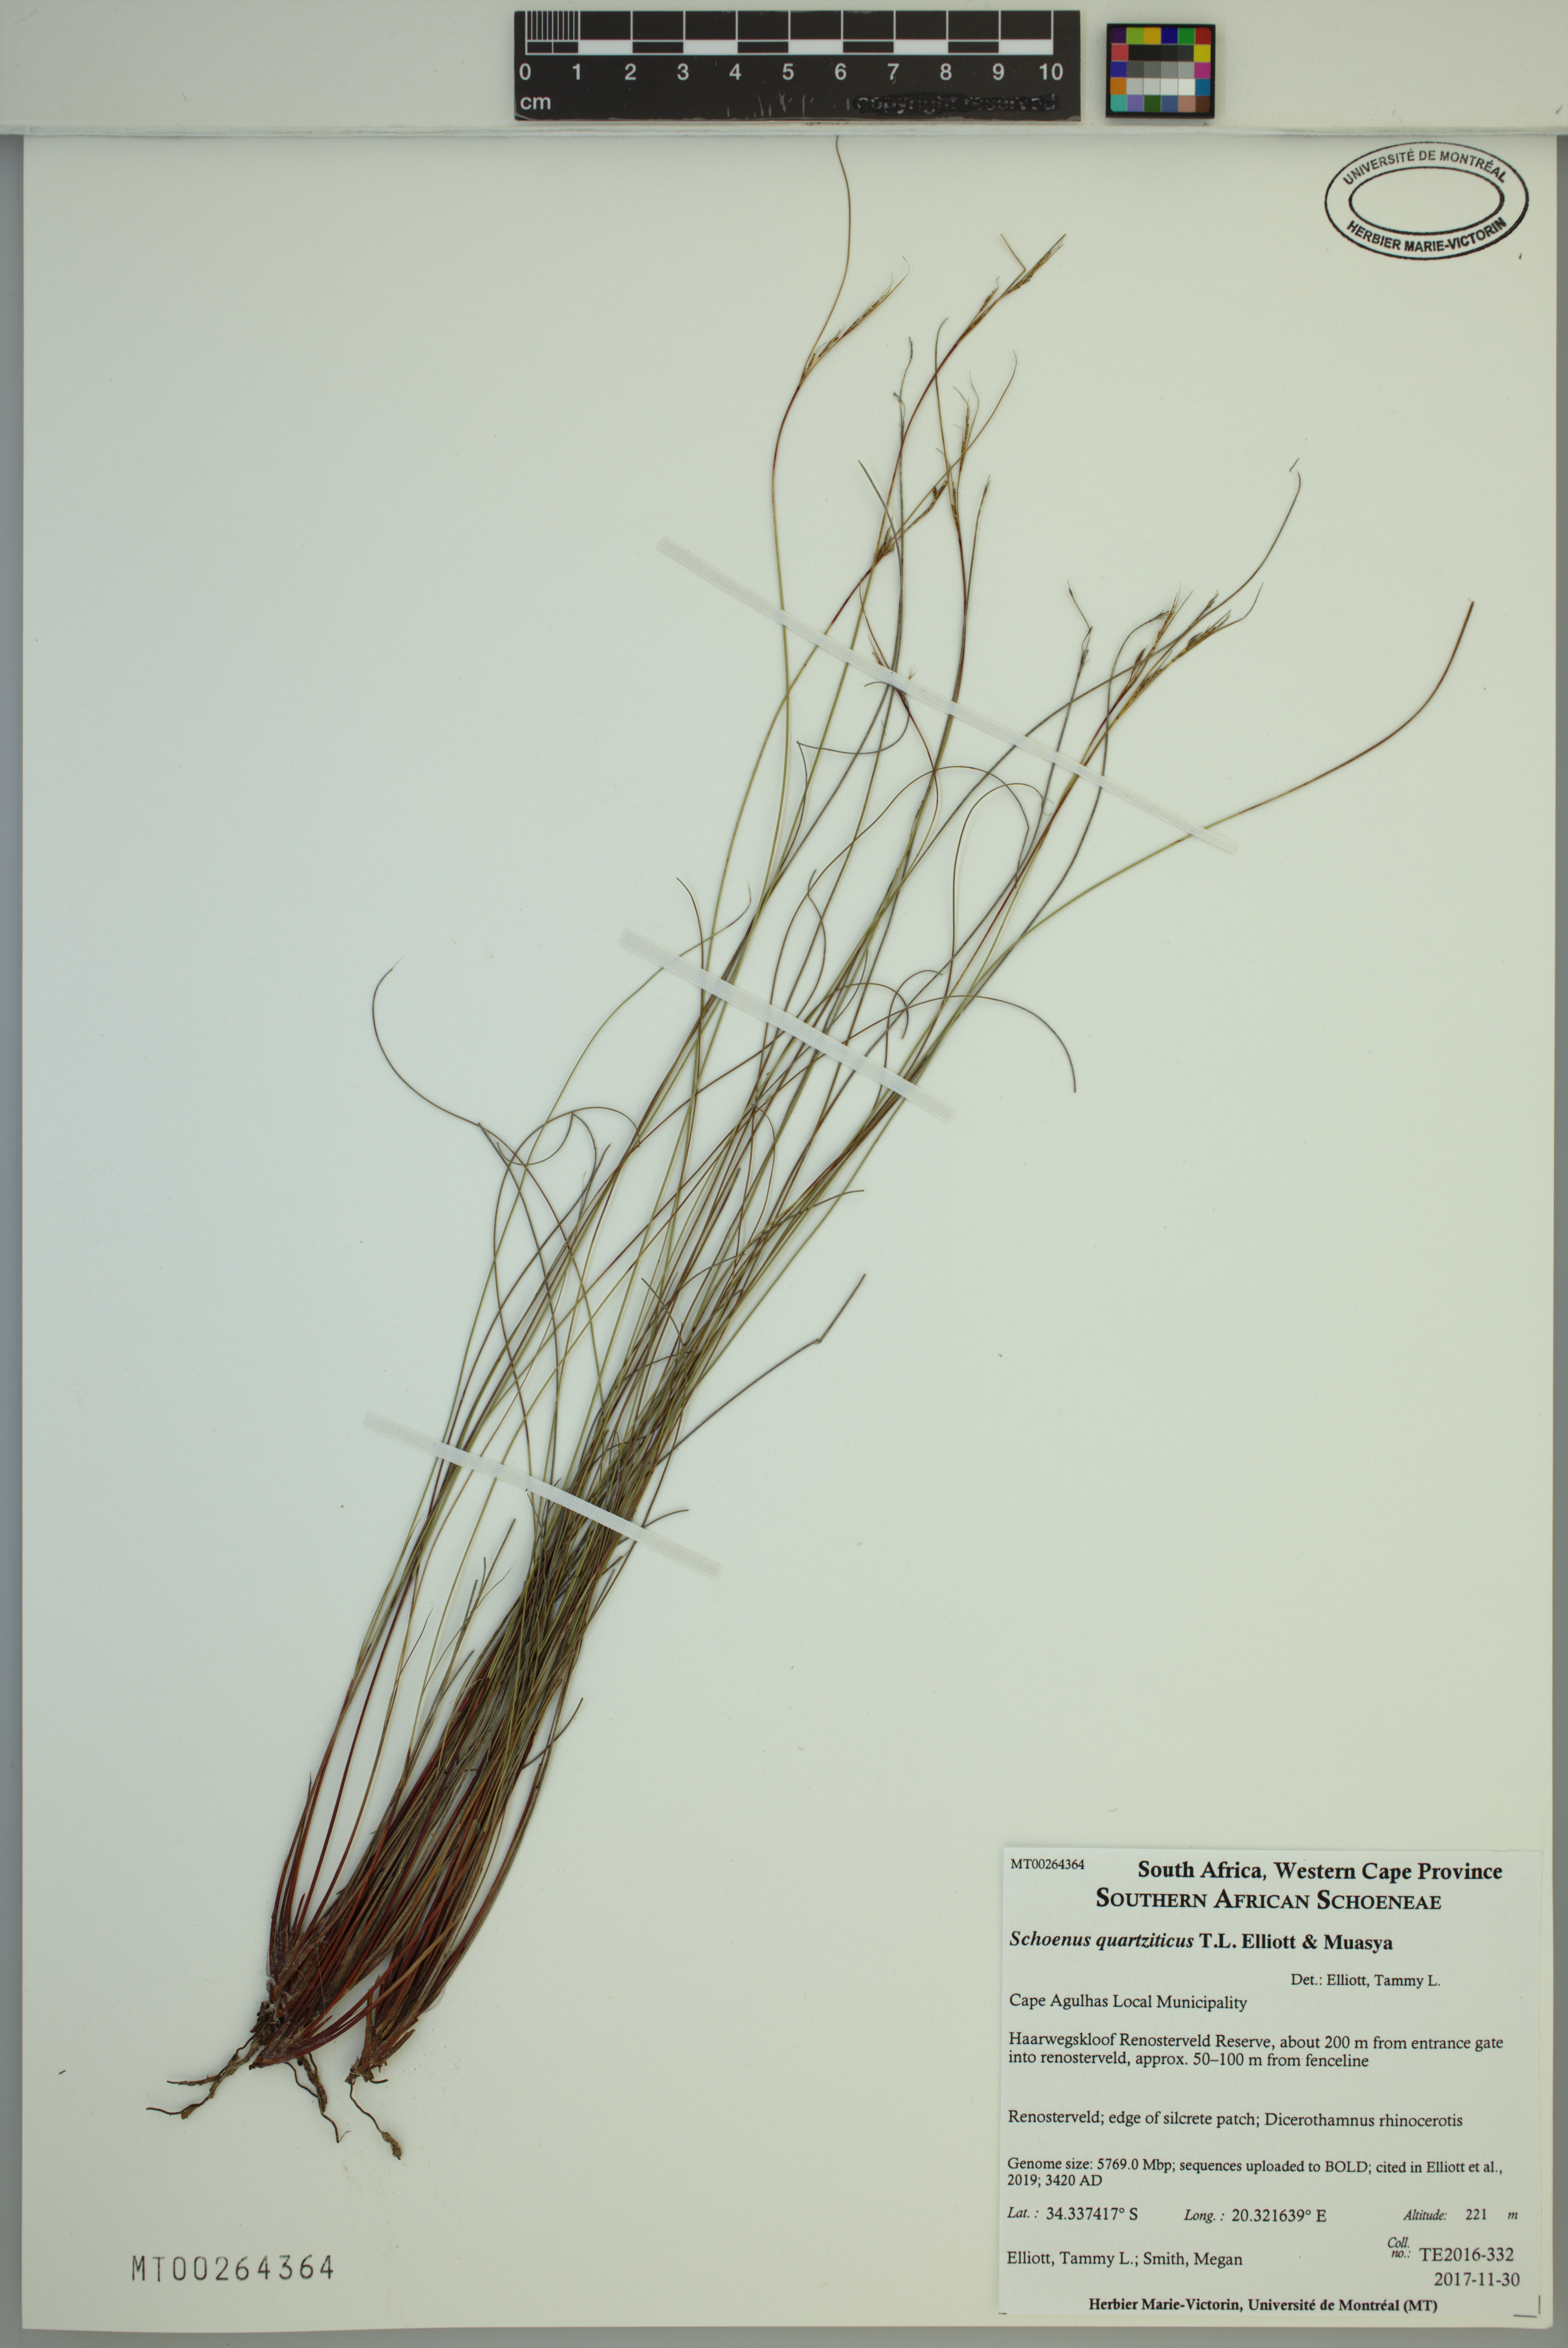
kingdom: Plantae
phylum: Tracheophyta
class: Liliopsida
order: Poales
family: Cyperaceae
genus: Schoenus
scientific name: Schoenus quartziticus
